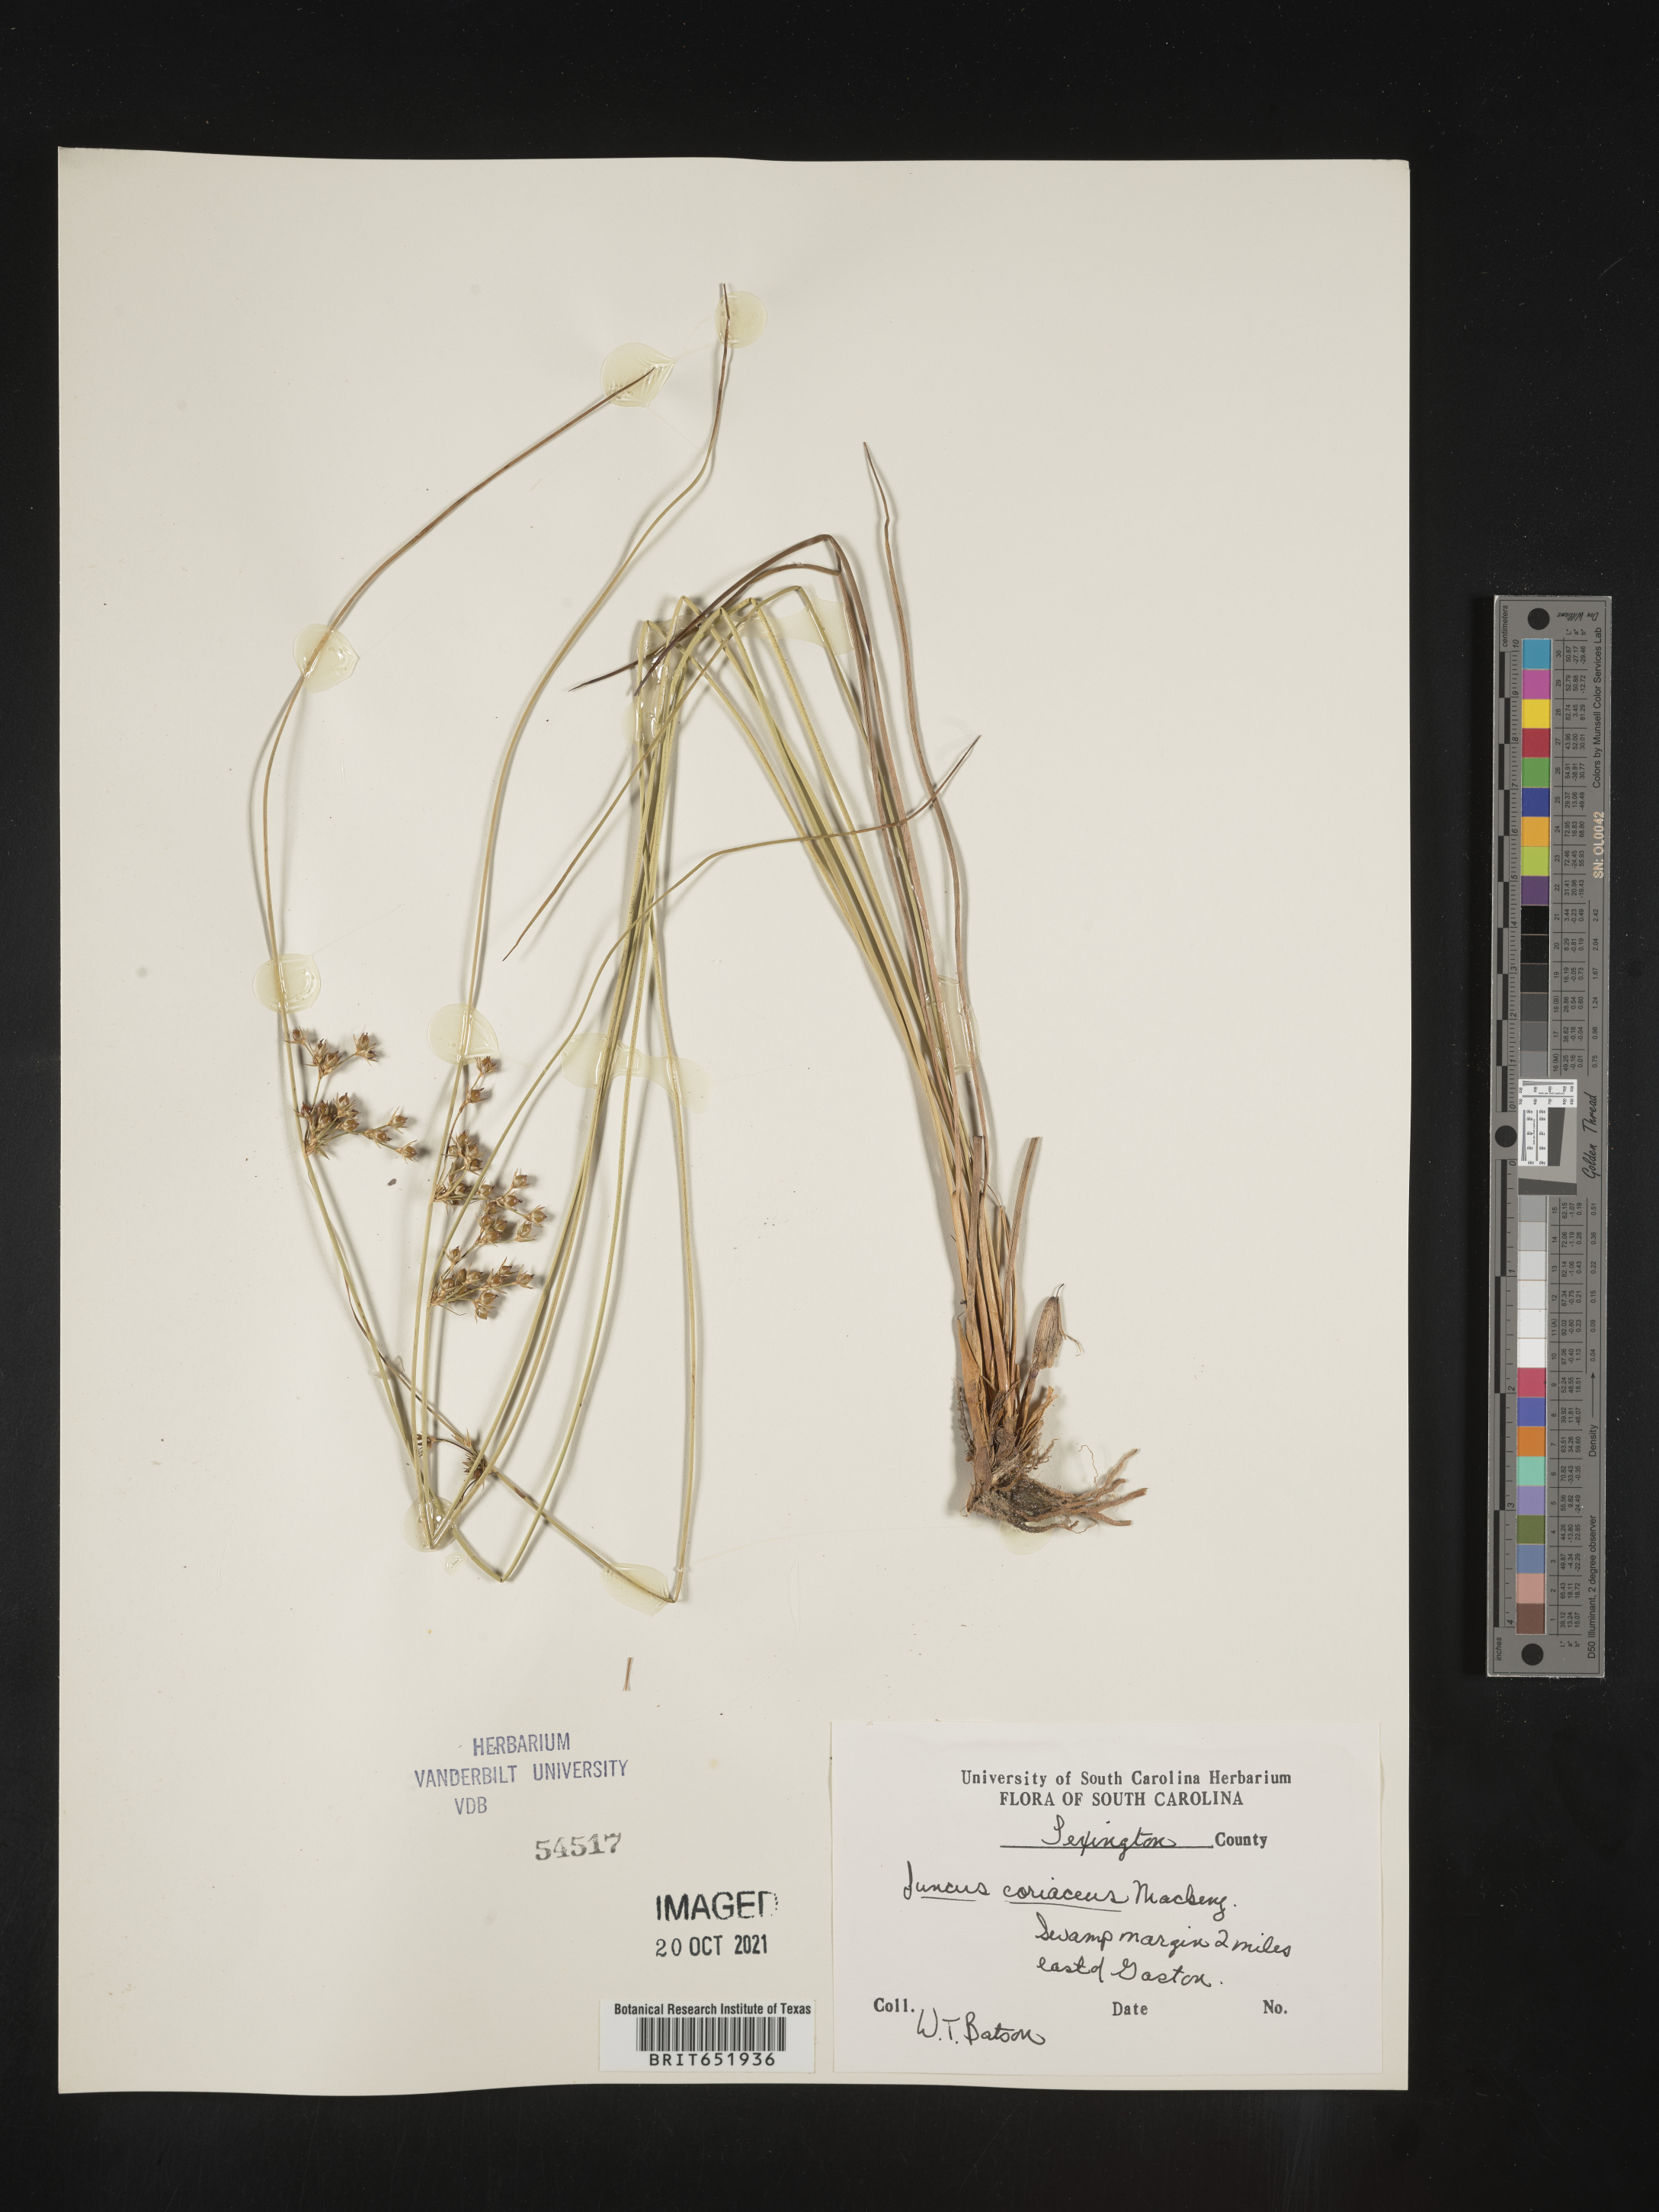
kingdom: Plantae
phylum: Tracheophyta
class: Liliopsida
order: Poales
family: Juncaceae
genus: Juncus
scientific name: Juncus coriaceus
